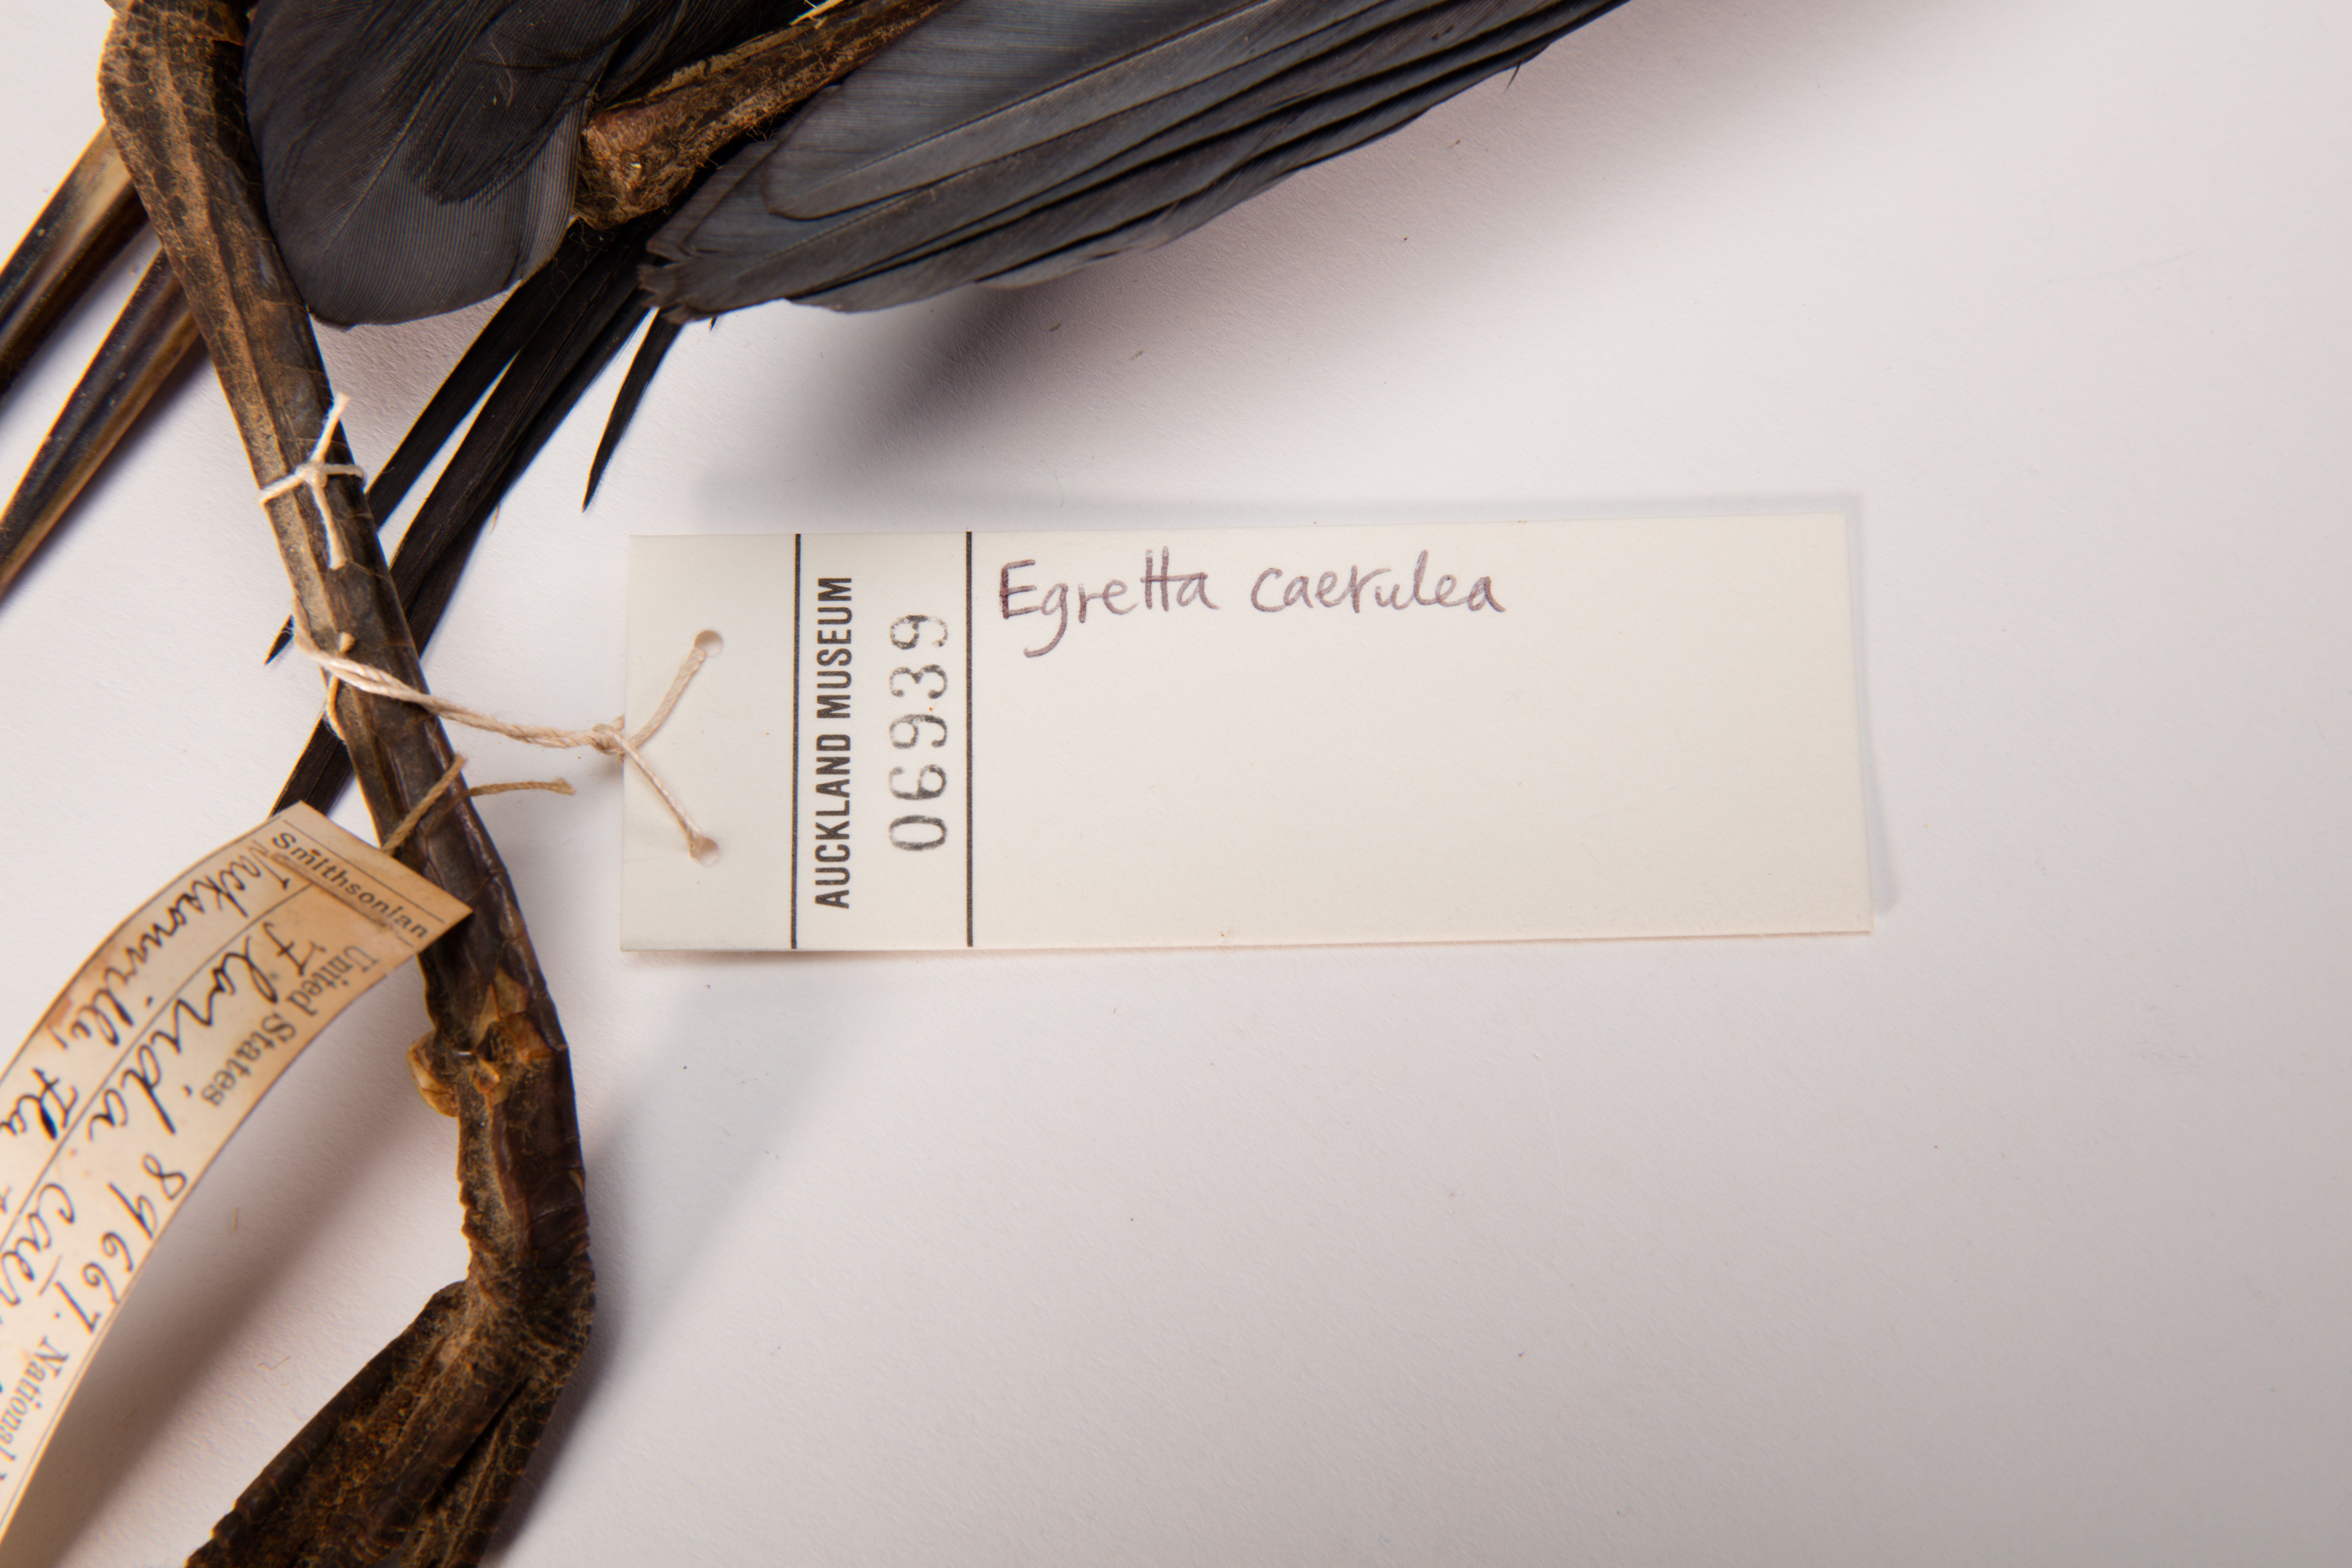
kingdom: Animalia
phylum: Chordata
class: Aves
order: Pelecaniformes
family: Ardeidae
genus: Egretta
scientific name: Egretta caerulea
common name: Little blue heron
